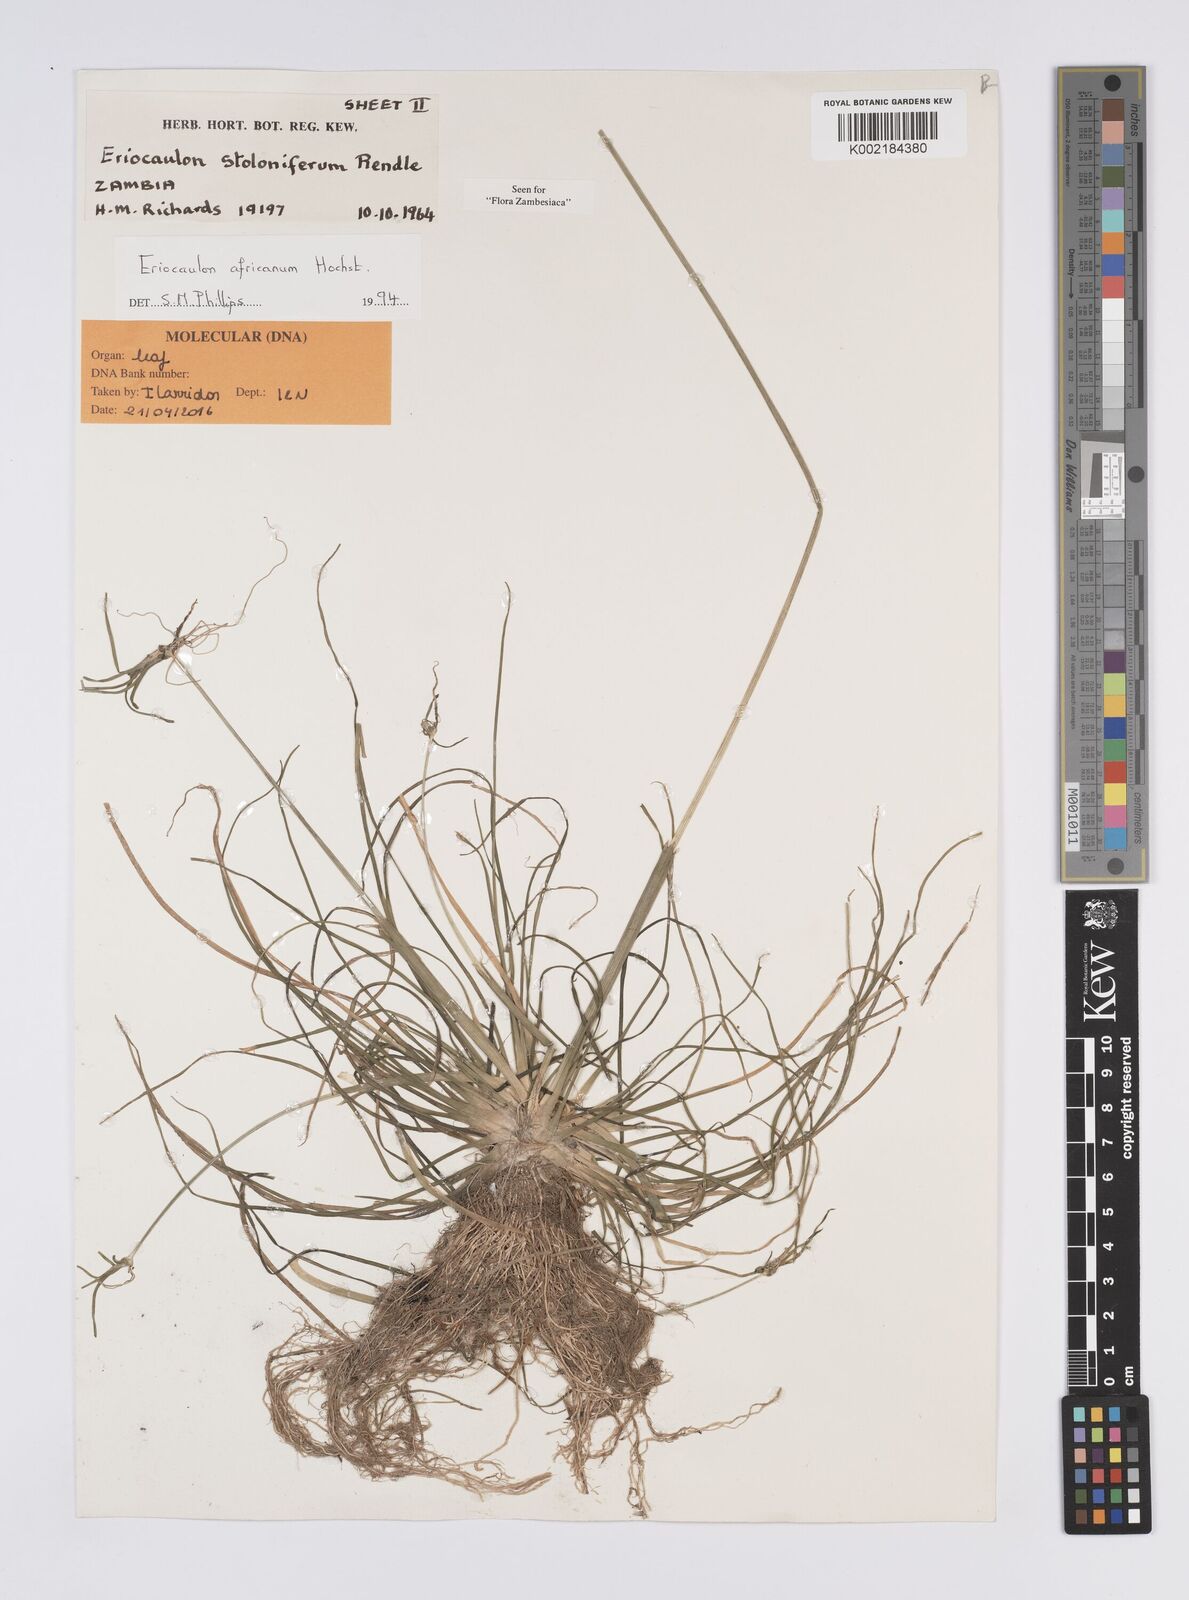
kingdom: Plantae
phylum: Tracheophyta
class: Liliopsida
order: Poales
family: Eriocaulaceae
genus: Eriocaulon
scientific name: Eriocaulon africanum
